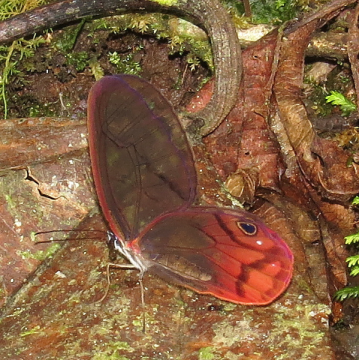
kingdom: Animalia
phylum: Arthropoda
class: Insecta
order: Lepidoptera
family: Nymphalidae
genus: Cithaerias
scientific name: Cithaerias pireta
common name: Rusted Clearwing-Satyr
